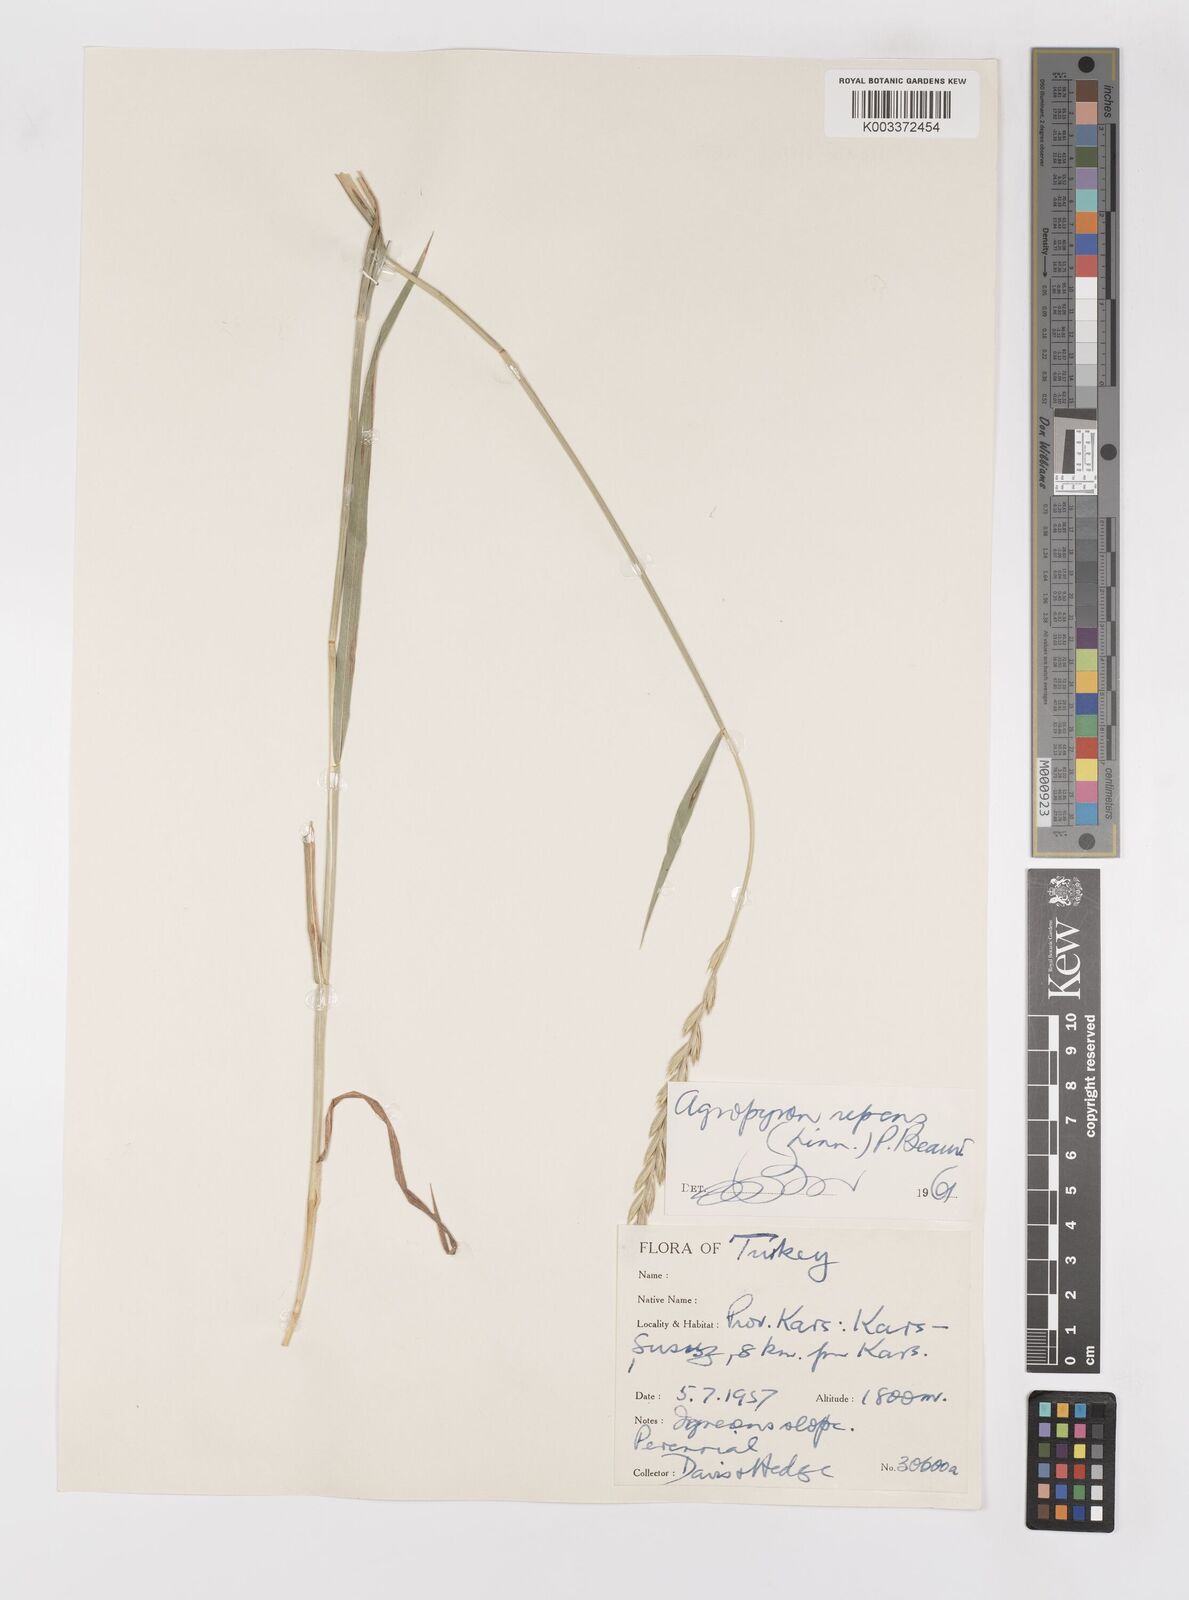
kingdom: Plantae
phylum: Tracheophyta
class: Liliopsida
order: Poales
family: Poaceae
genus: Elymus
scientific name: Elymus repens
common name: Quackgrass
